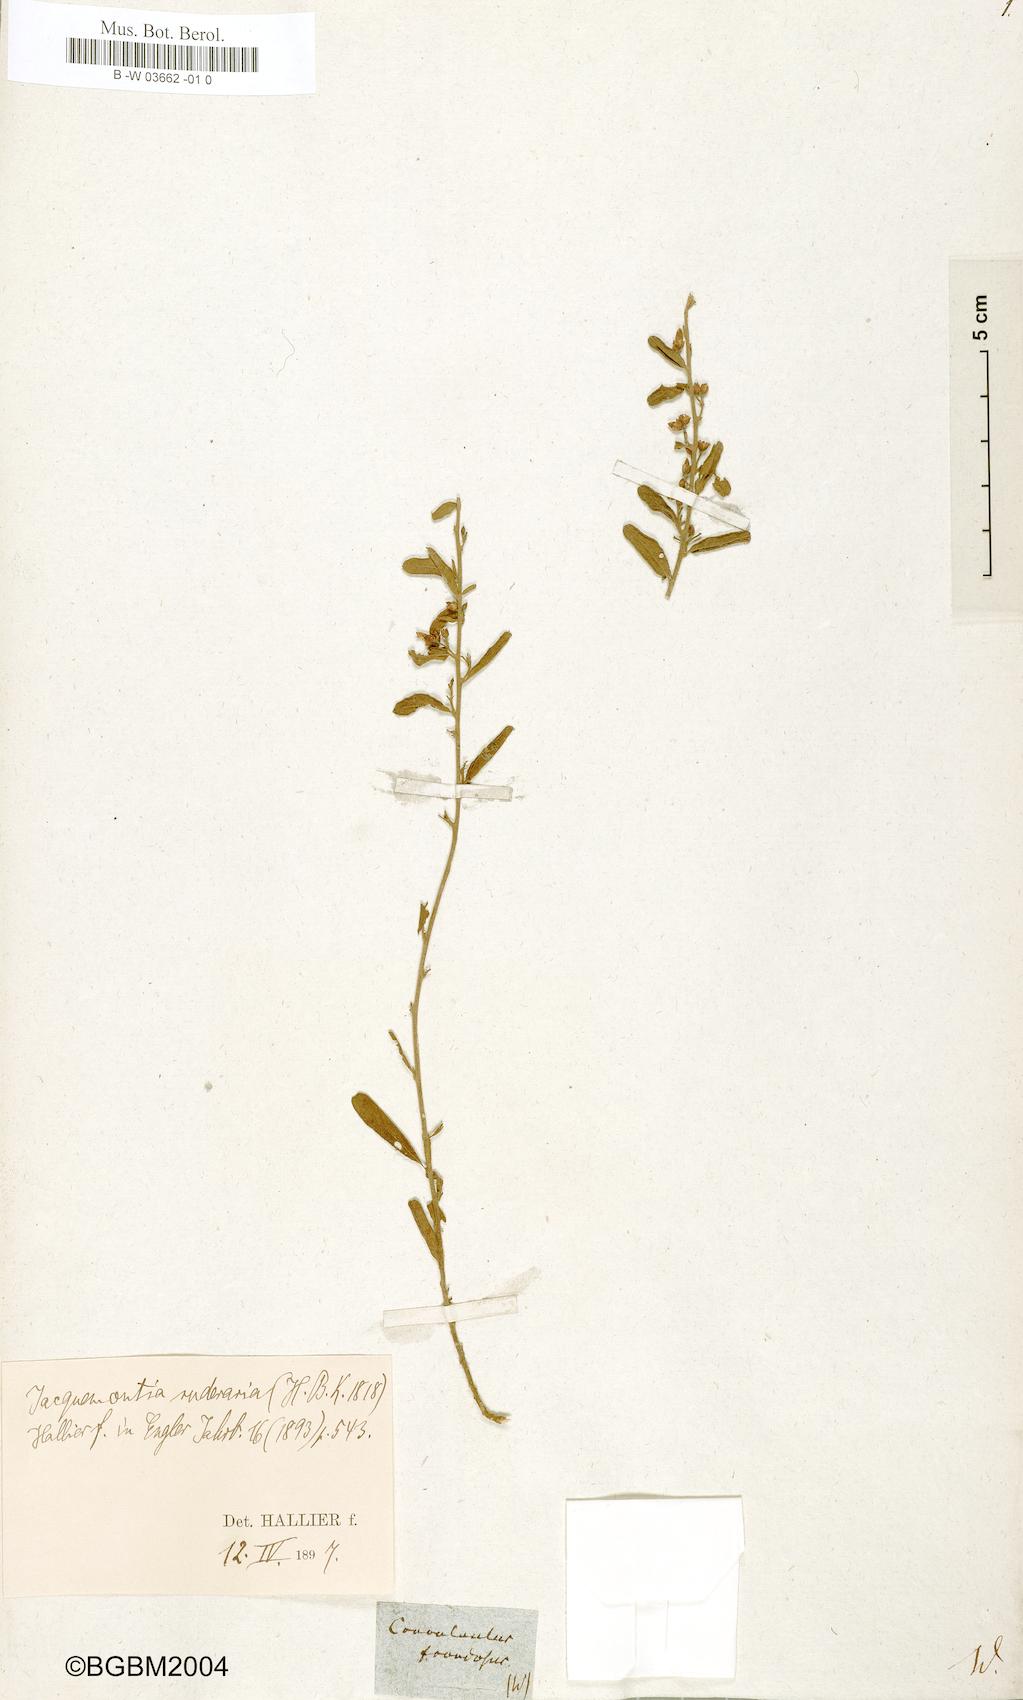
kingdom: Plantae
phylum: Tracheophyta
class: Magnoliopsida
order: Solanales
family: Convolvulaceae
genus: Jacquemontia
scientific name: Jacquemontia havanensis
